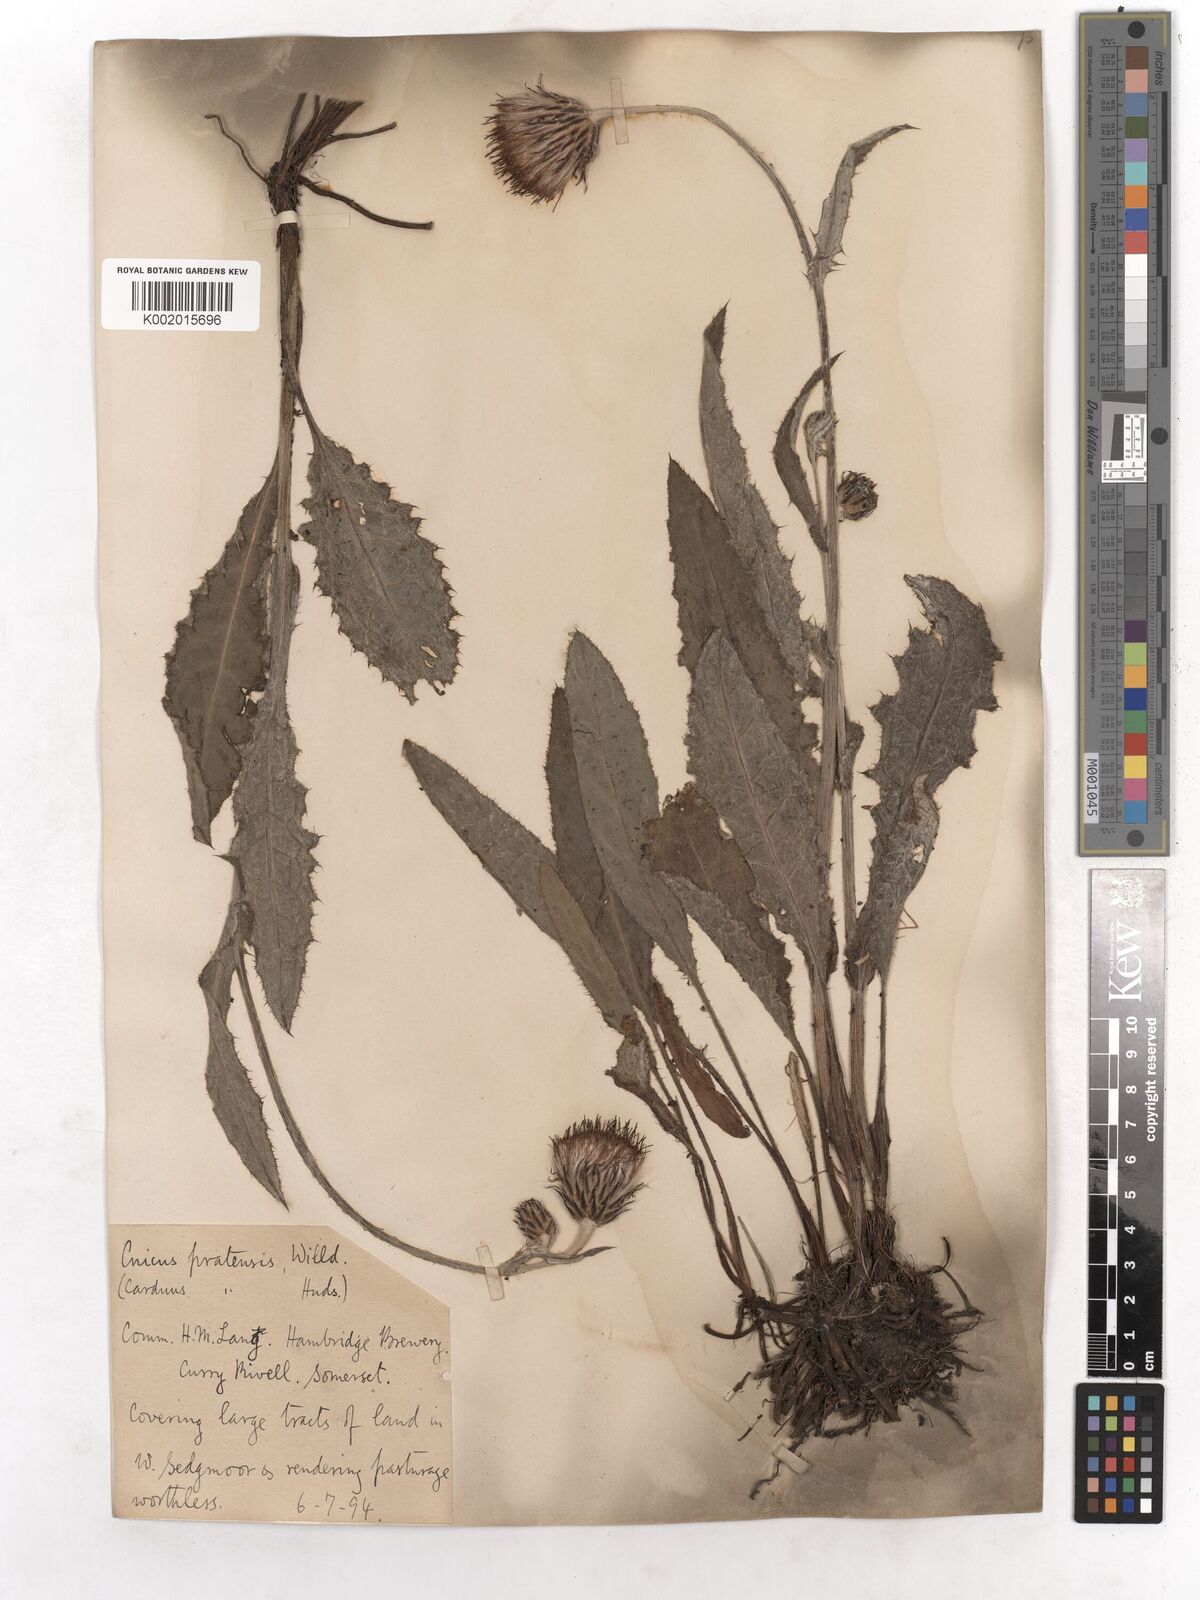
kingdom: Plantae
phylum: Tracheophyta
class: Magnoliopsida
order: Asterales
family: Asteraceae
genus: Cirsium
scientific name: Cirsium dissectum
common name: Meadow thistle
